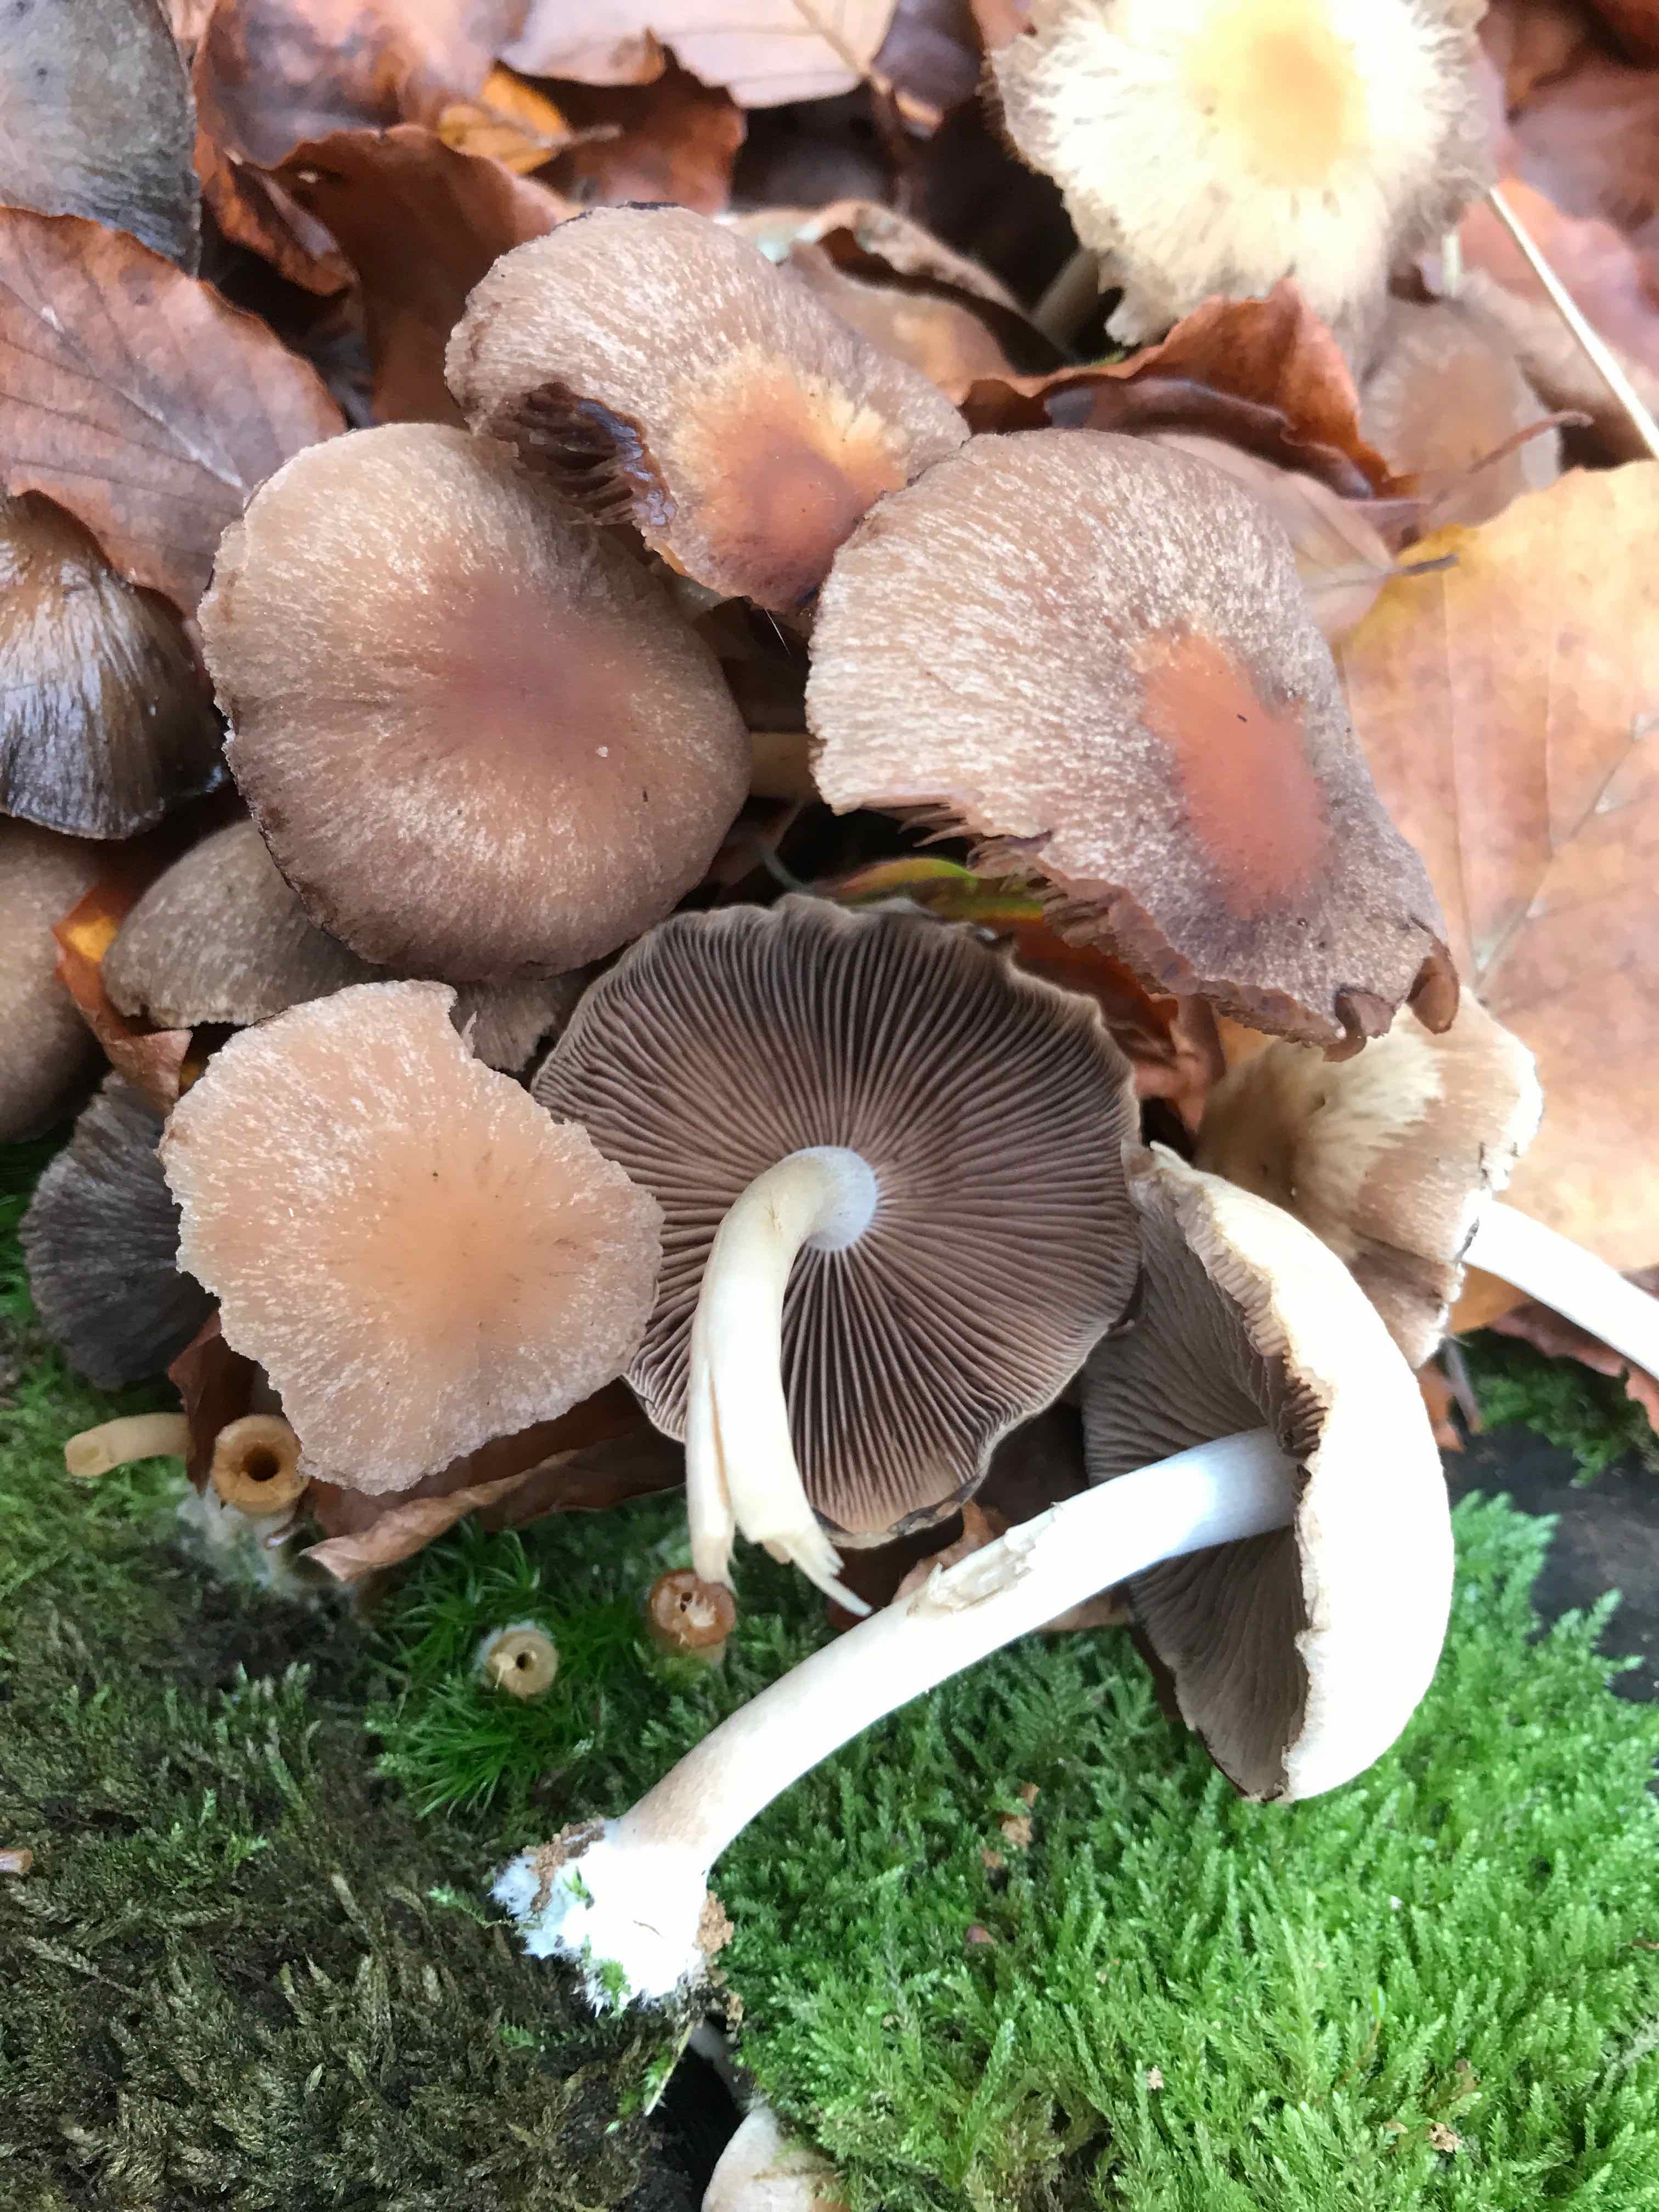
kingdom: Fungi
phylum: Basidiomycota
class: Agaricomycetes
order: Agaricales
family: Psathyrellaceae
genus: Psathyrella
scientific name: Psathyrella piluliformis
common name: lysstokket mørkhat
